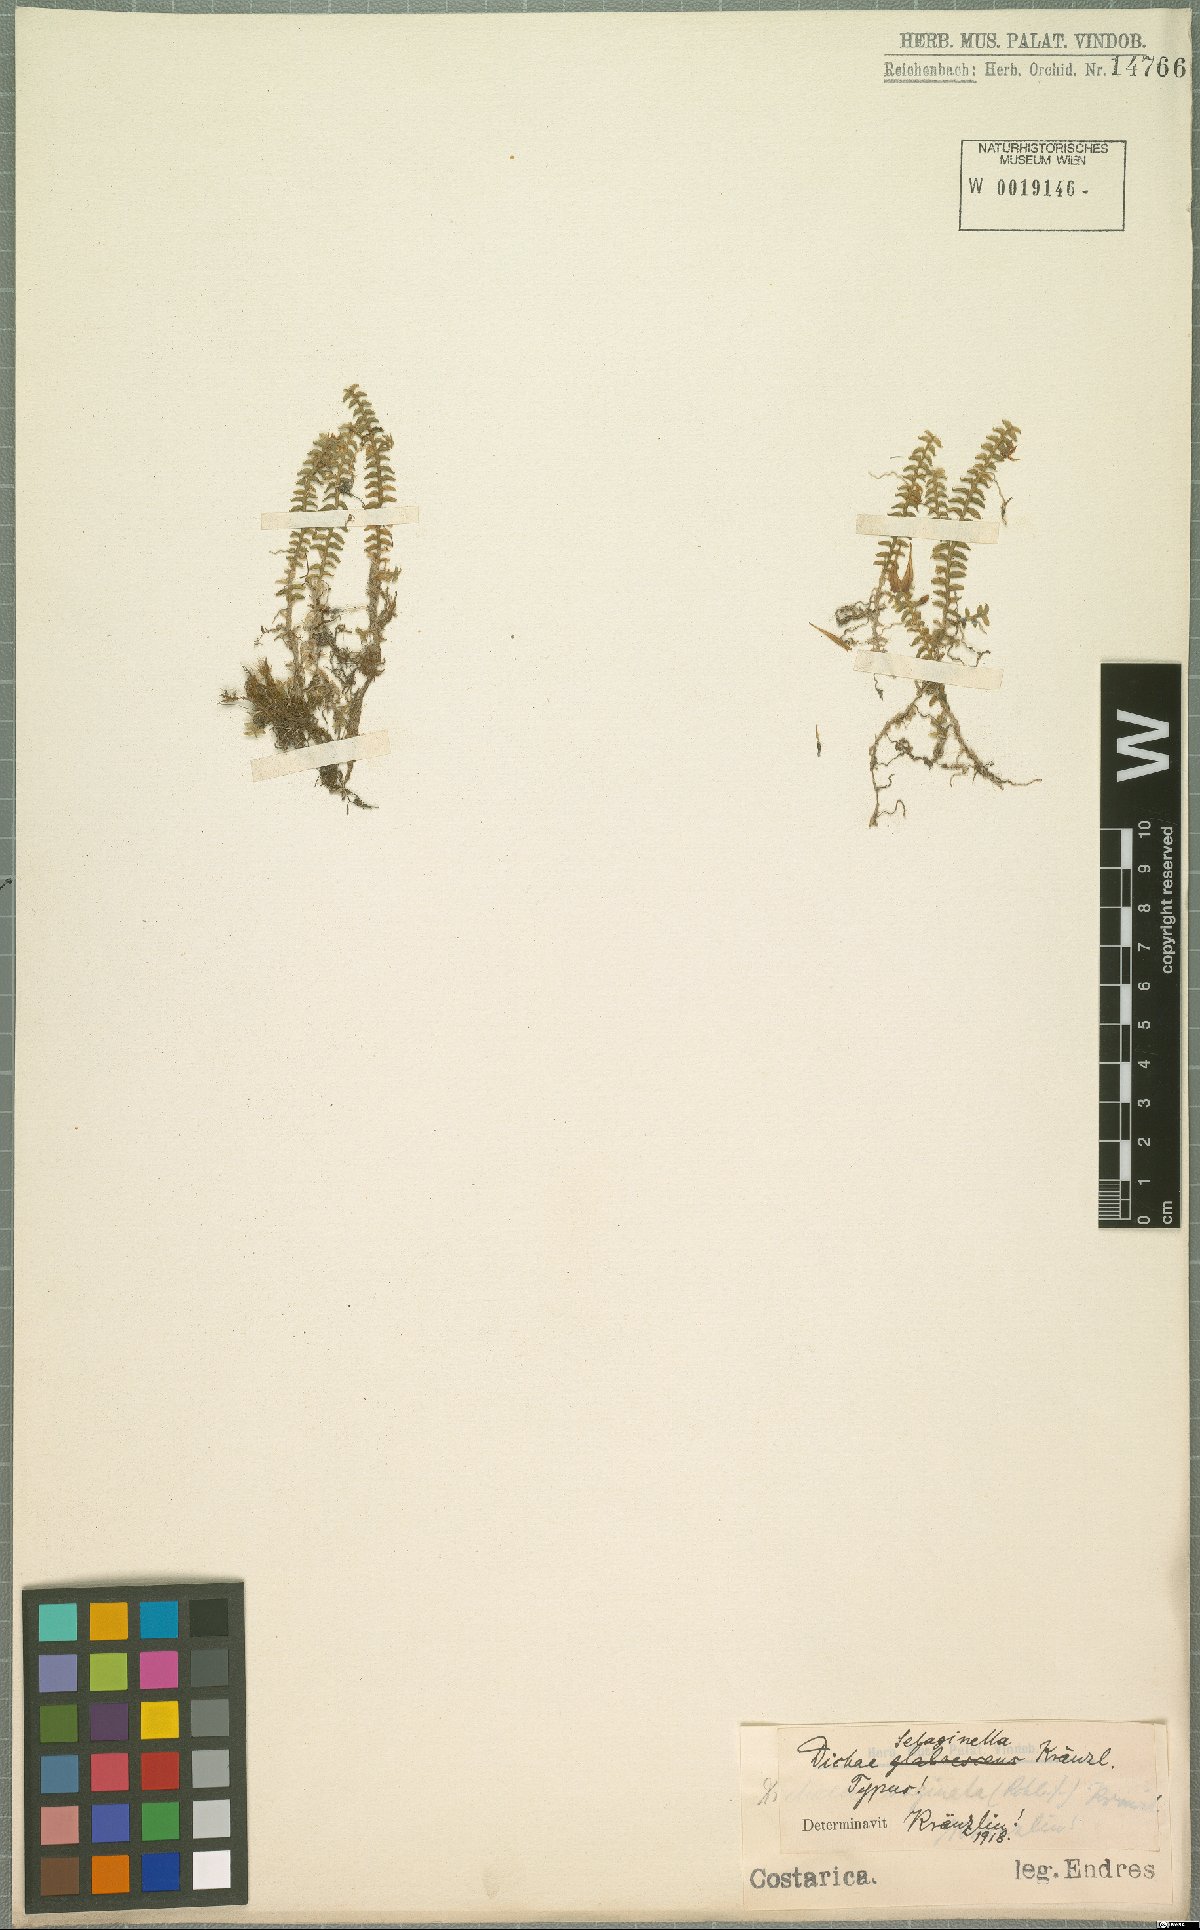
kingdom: Plantae
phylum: Tracheophyta
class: Liliopsida
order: Asparagales
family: Orchidaceae
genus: Dichaea
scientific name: Dichaea selaginella
